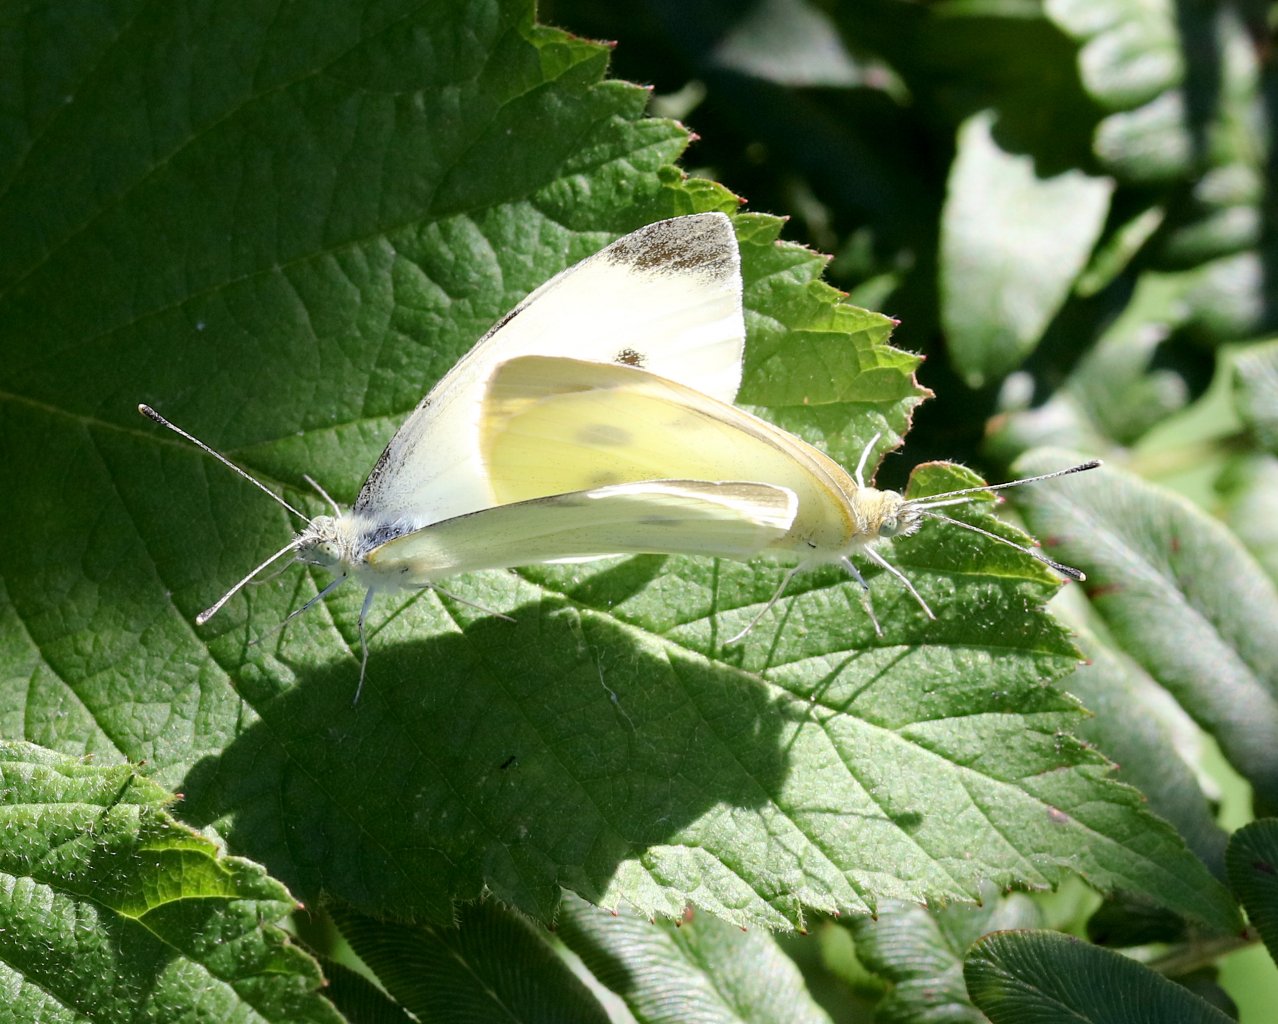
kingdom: Animalia
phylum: Arthropoda
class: Insecta
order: Lepidoptera
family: Pieridae
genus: Pieris
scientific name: Pieris rapae
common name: Cabbage White
